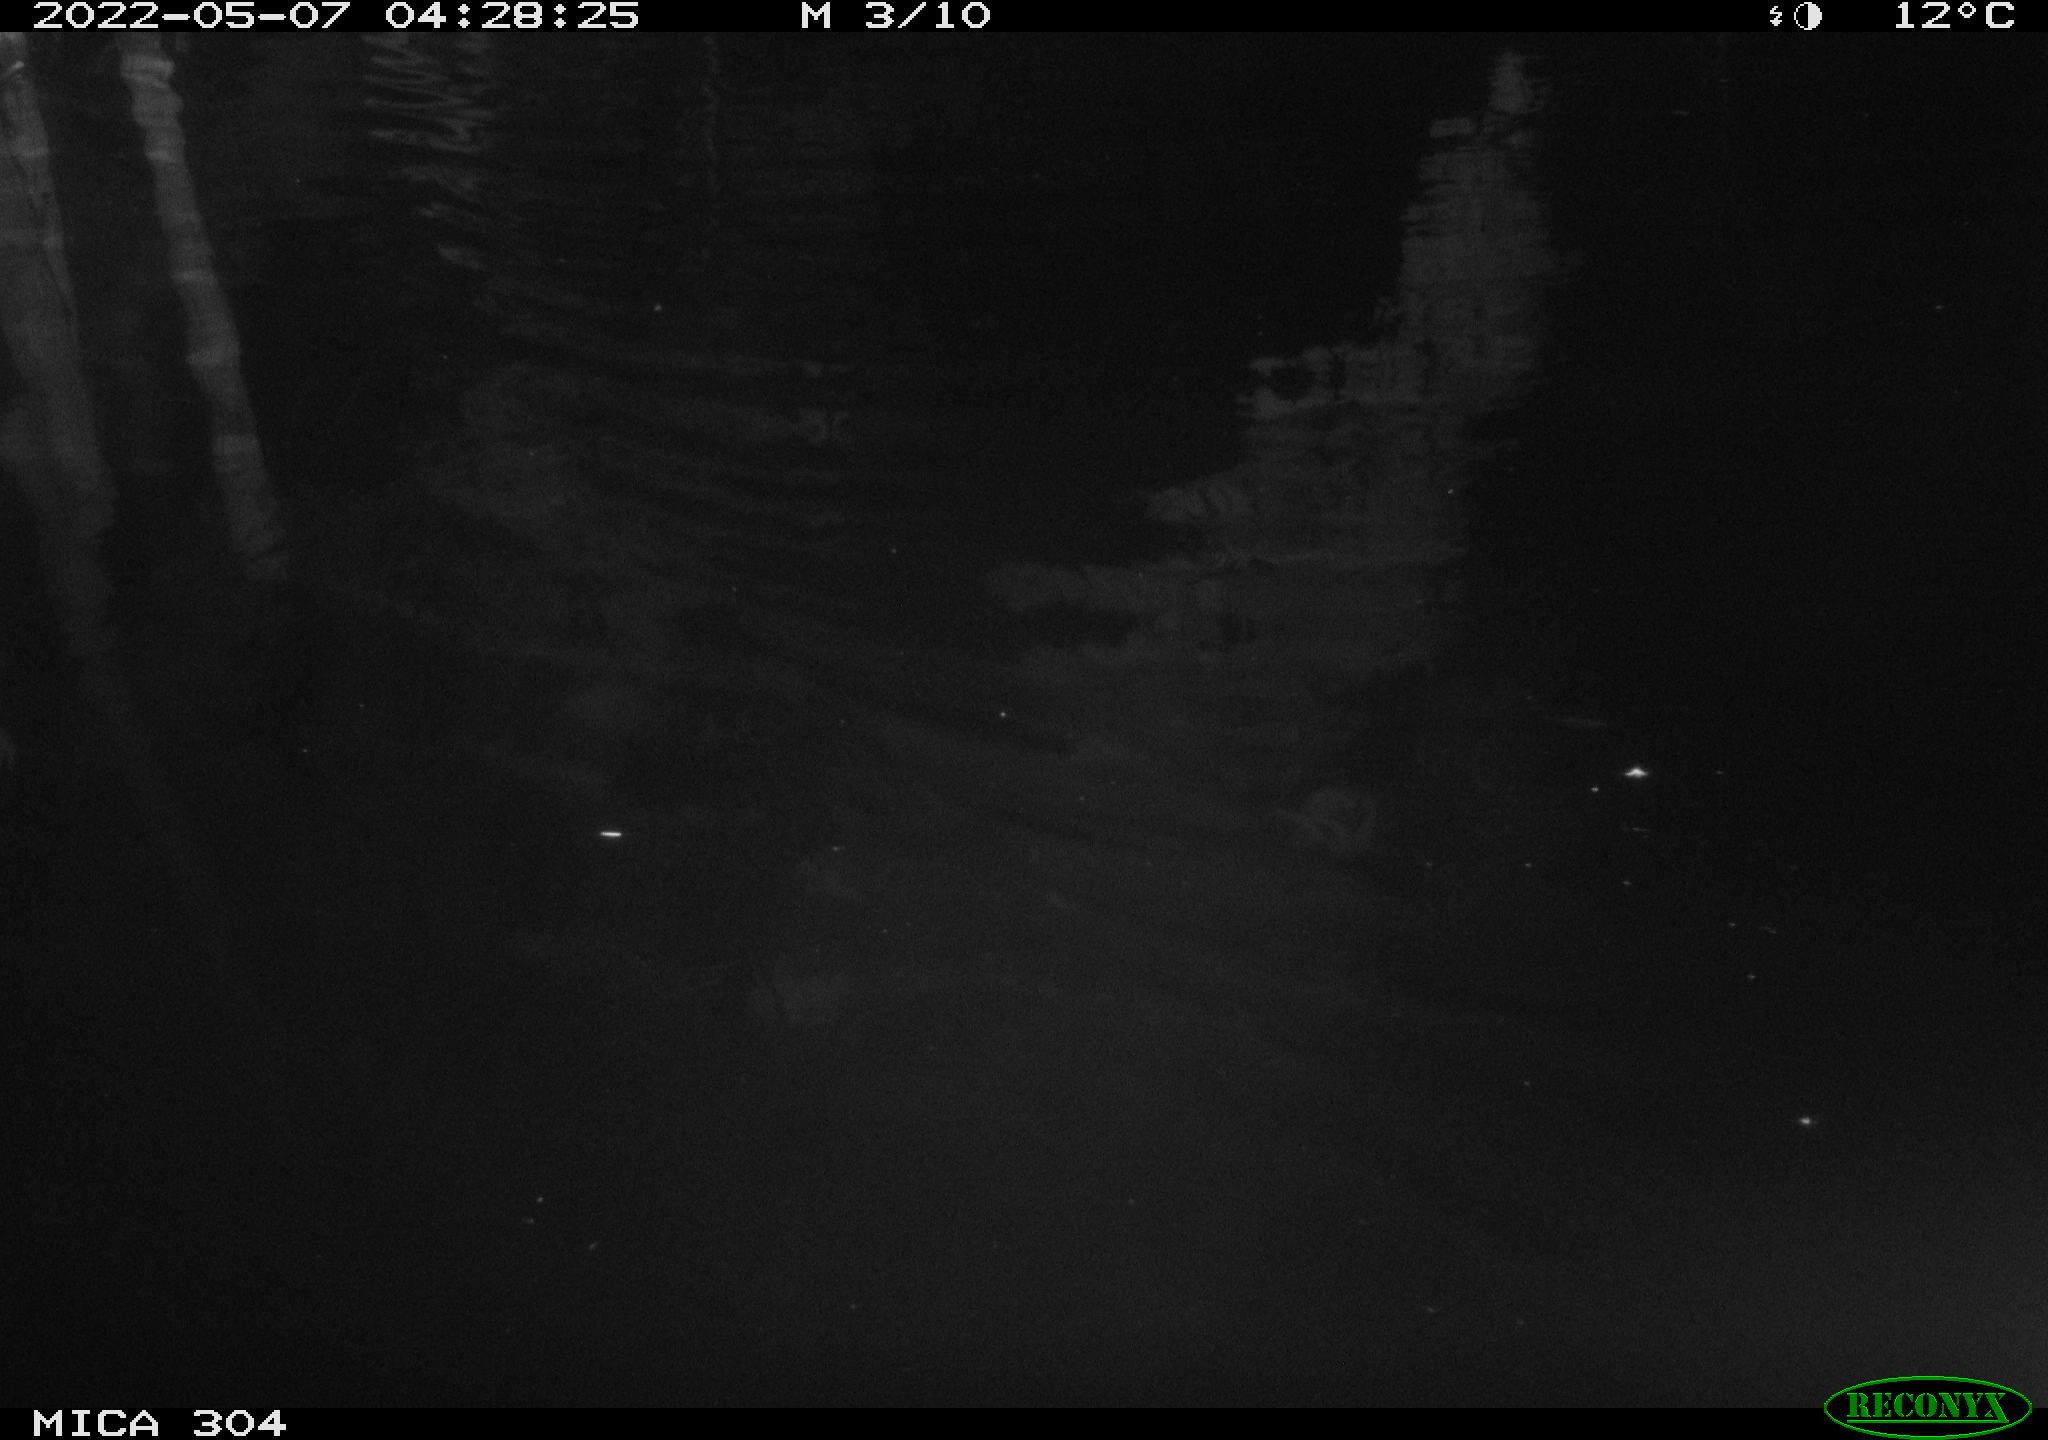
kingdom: Animalia
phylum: Chordata
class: Aves
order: Anseriformes
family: Anatidae
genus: Anas
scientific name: Anas platyrhynchos
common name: Mallard
